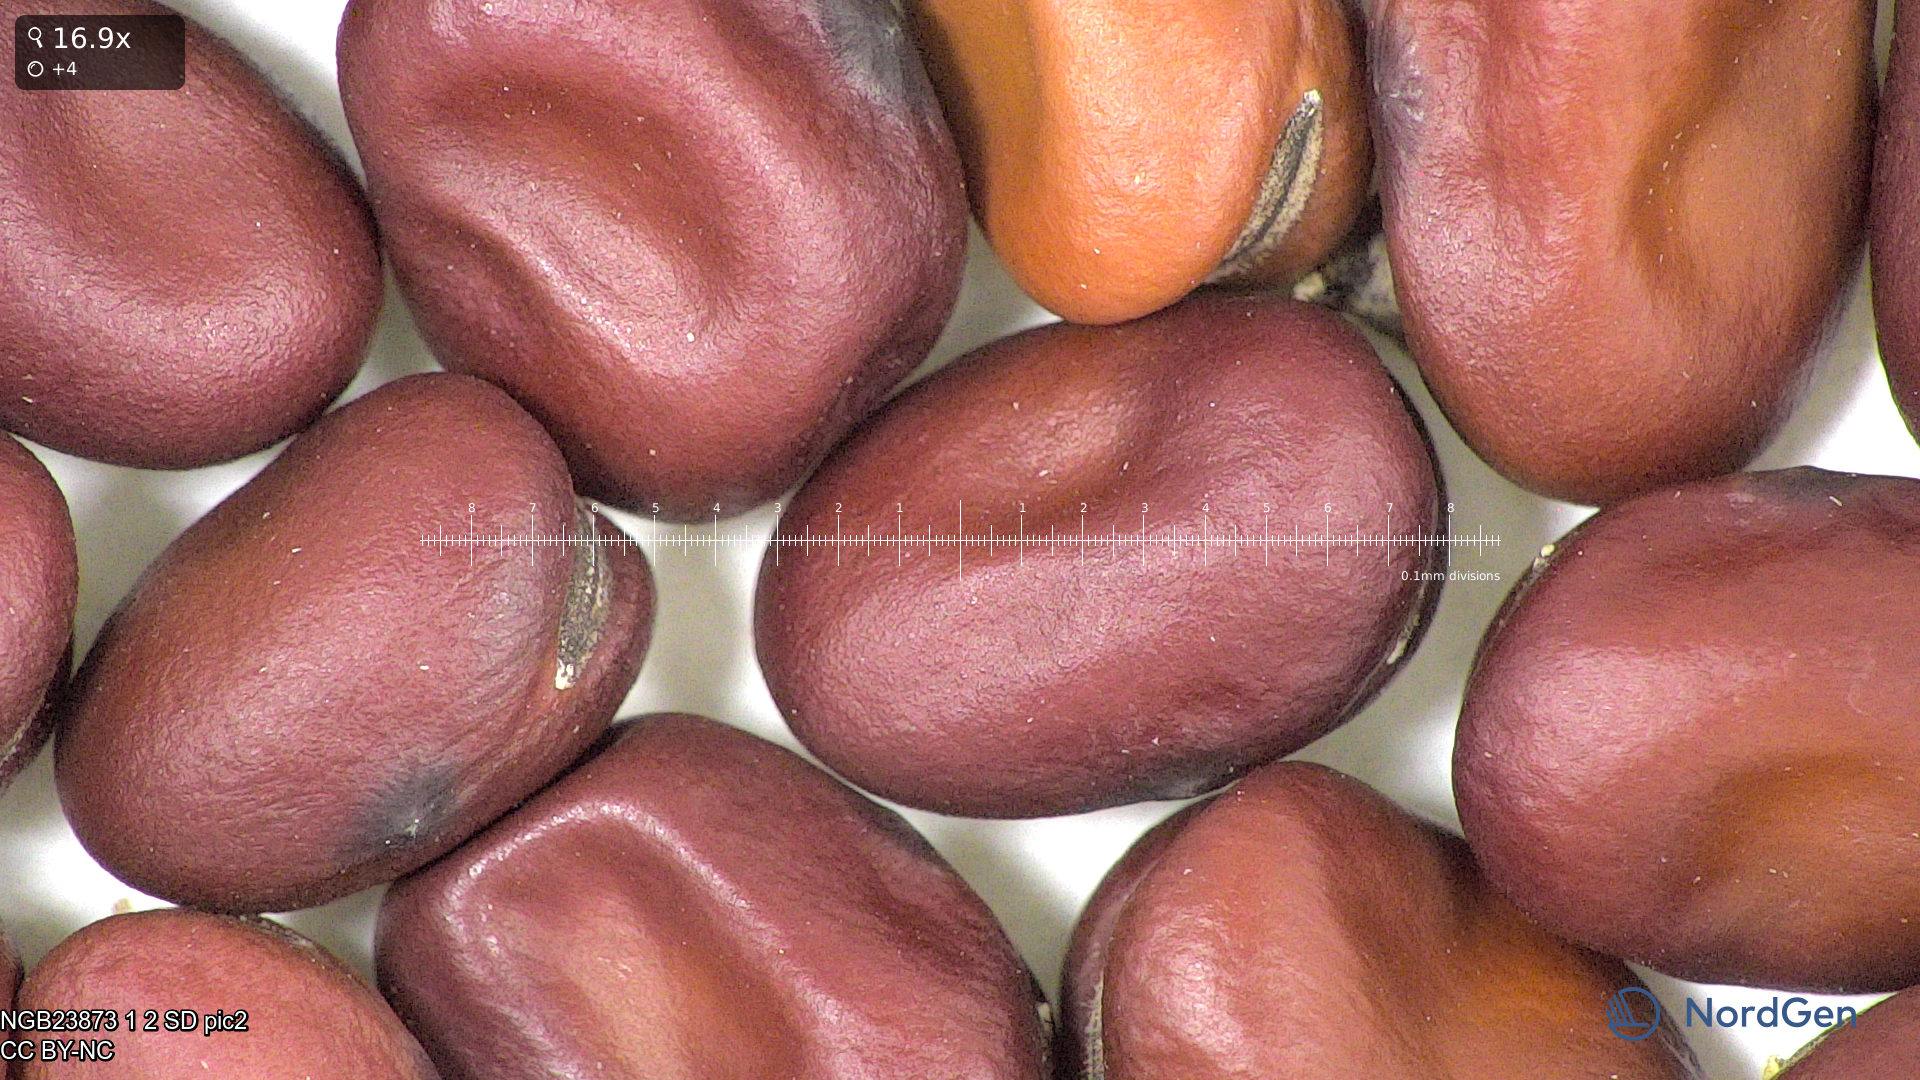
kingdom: Plantae
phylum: Tracheophyta
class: Magnoliopsida
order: Fabales
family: Fabaceae
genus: Vicia
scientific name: Vicia faba
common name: Broad bean
